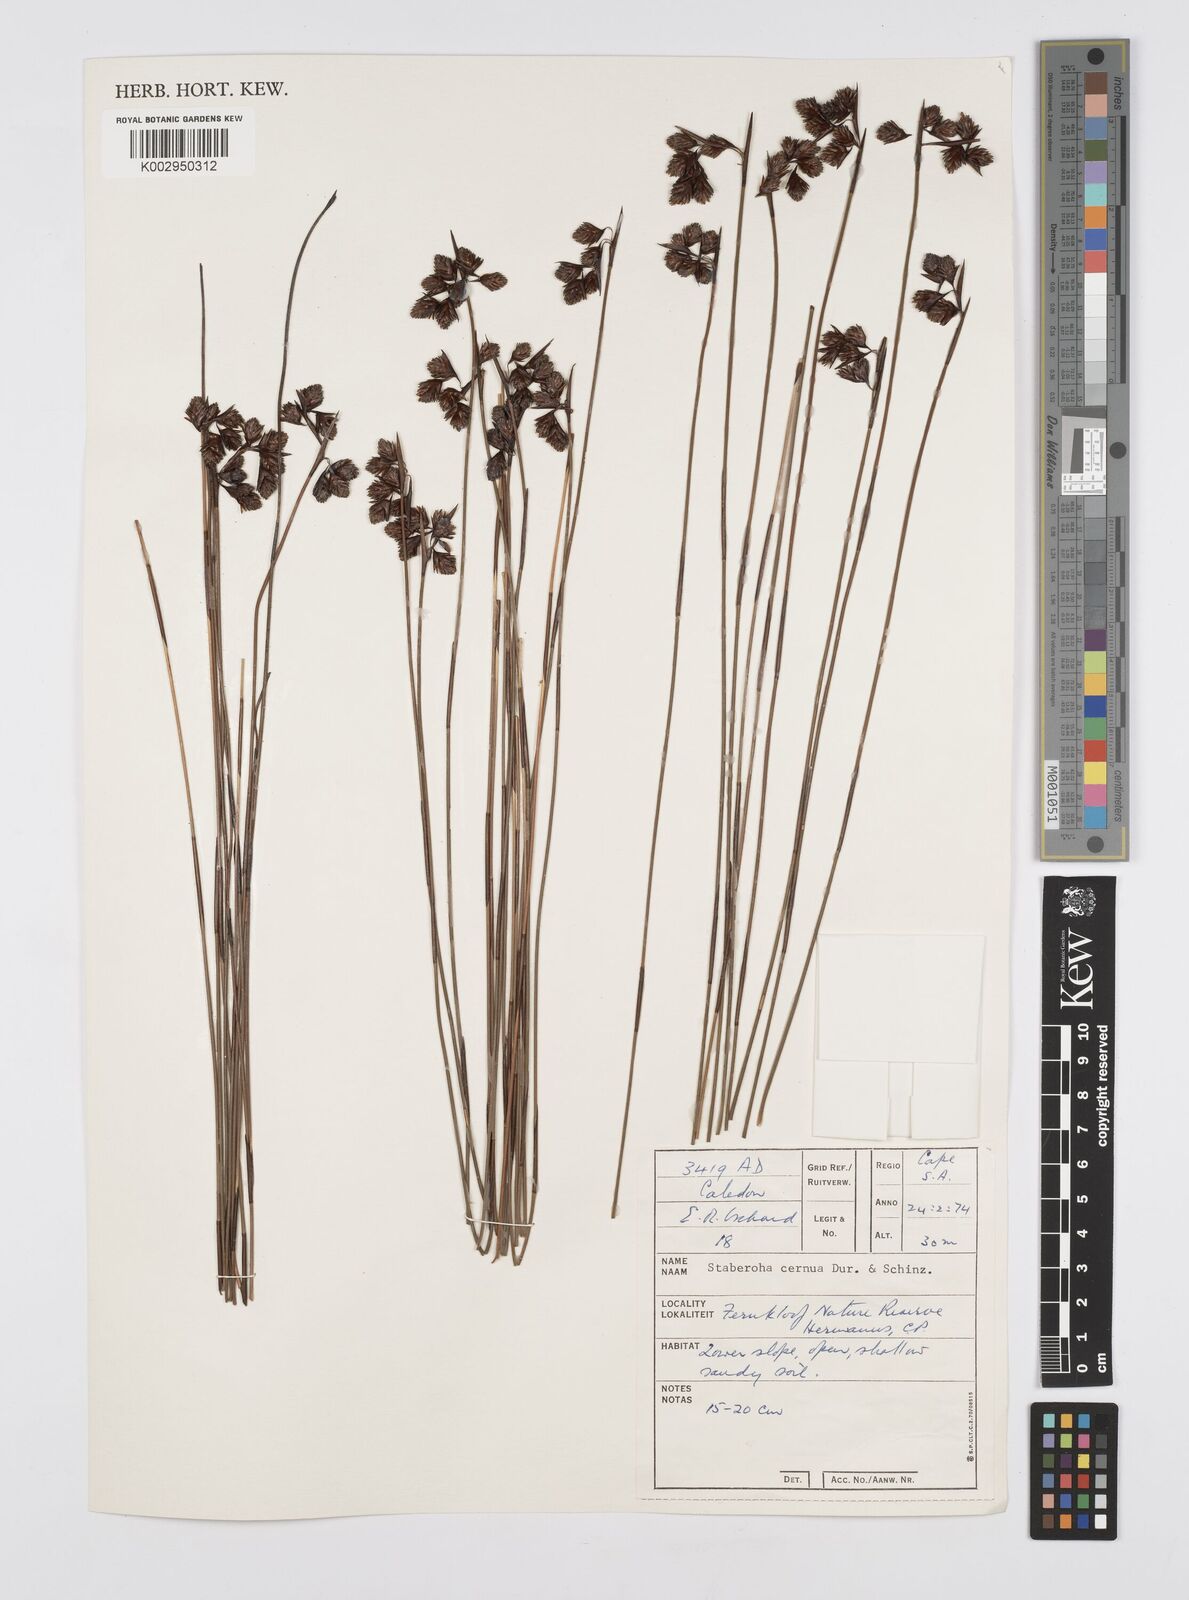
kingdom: Plantae
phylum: Tracheophyta
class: Liliopsida
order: Poales
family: Restionaceae
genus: Staberoha
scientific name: Staberoha cernua
